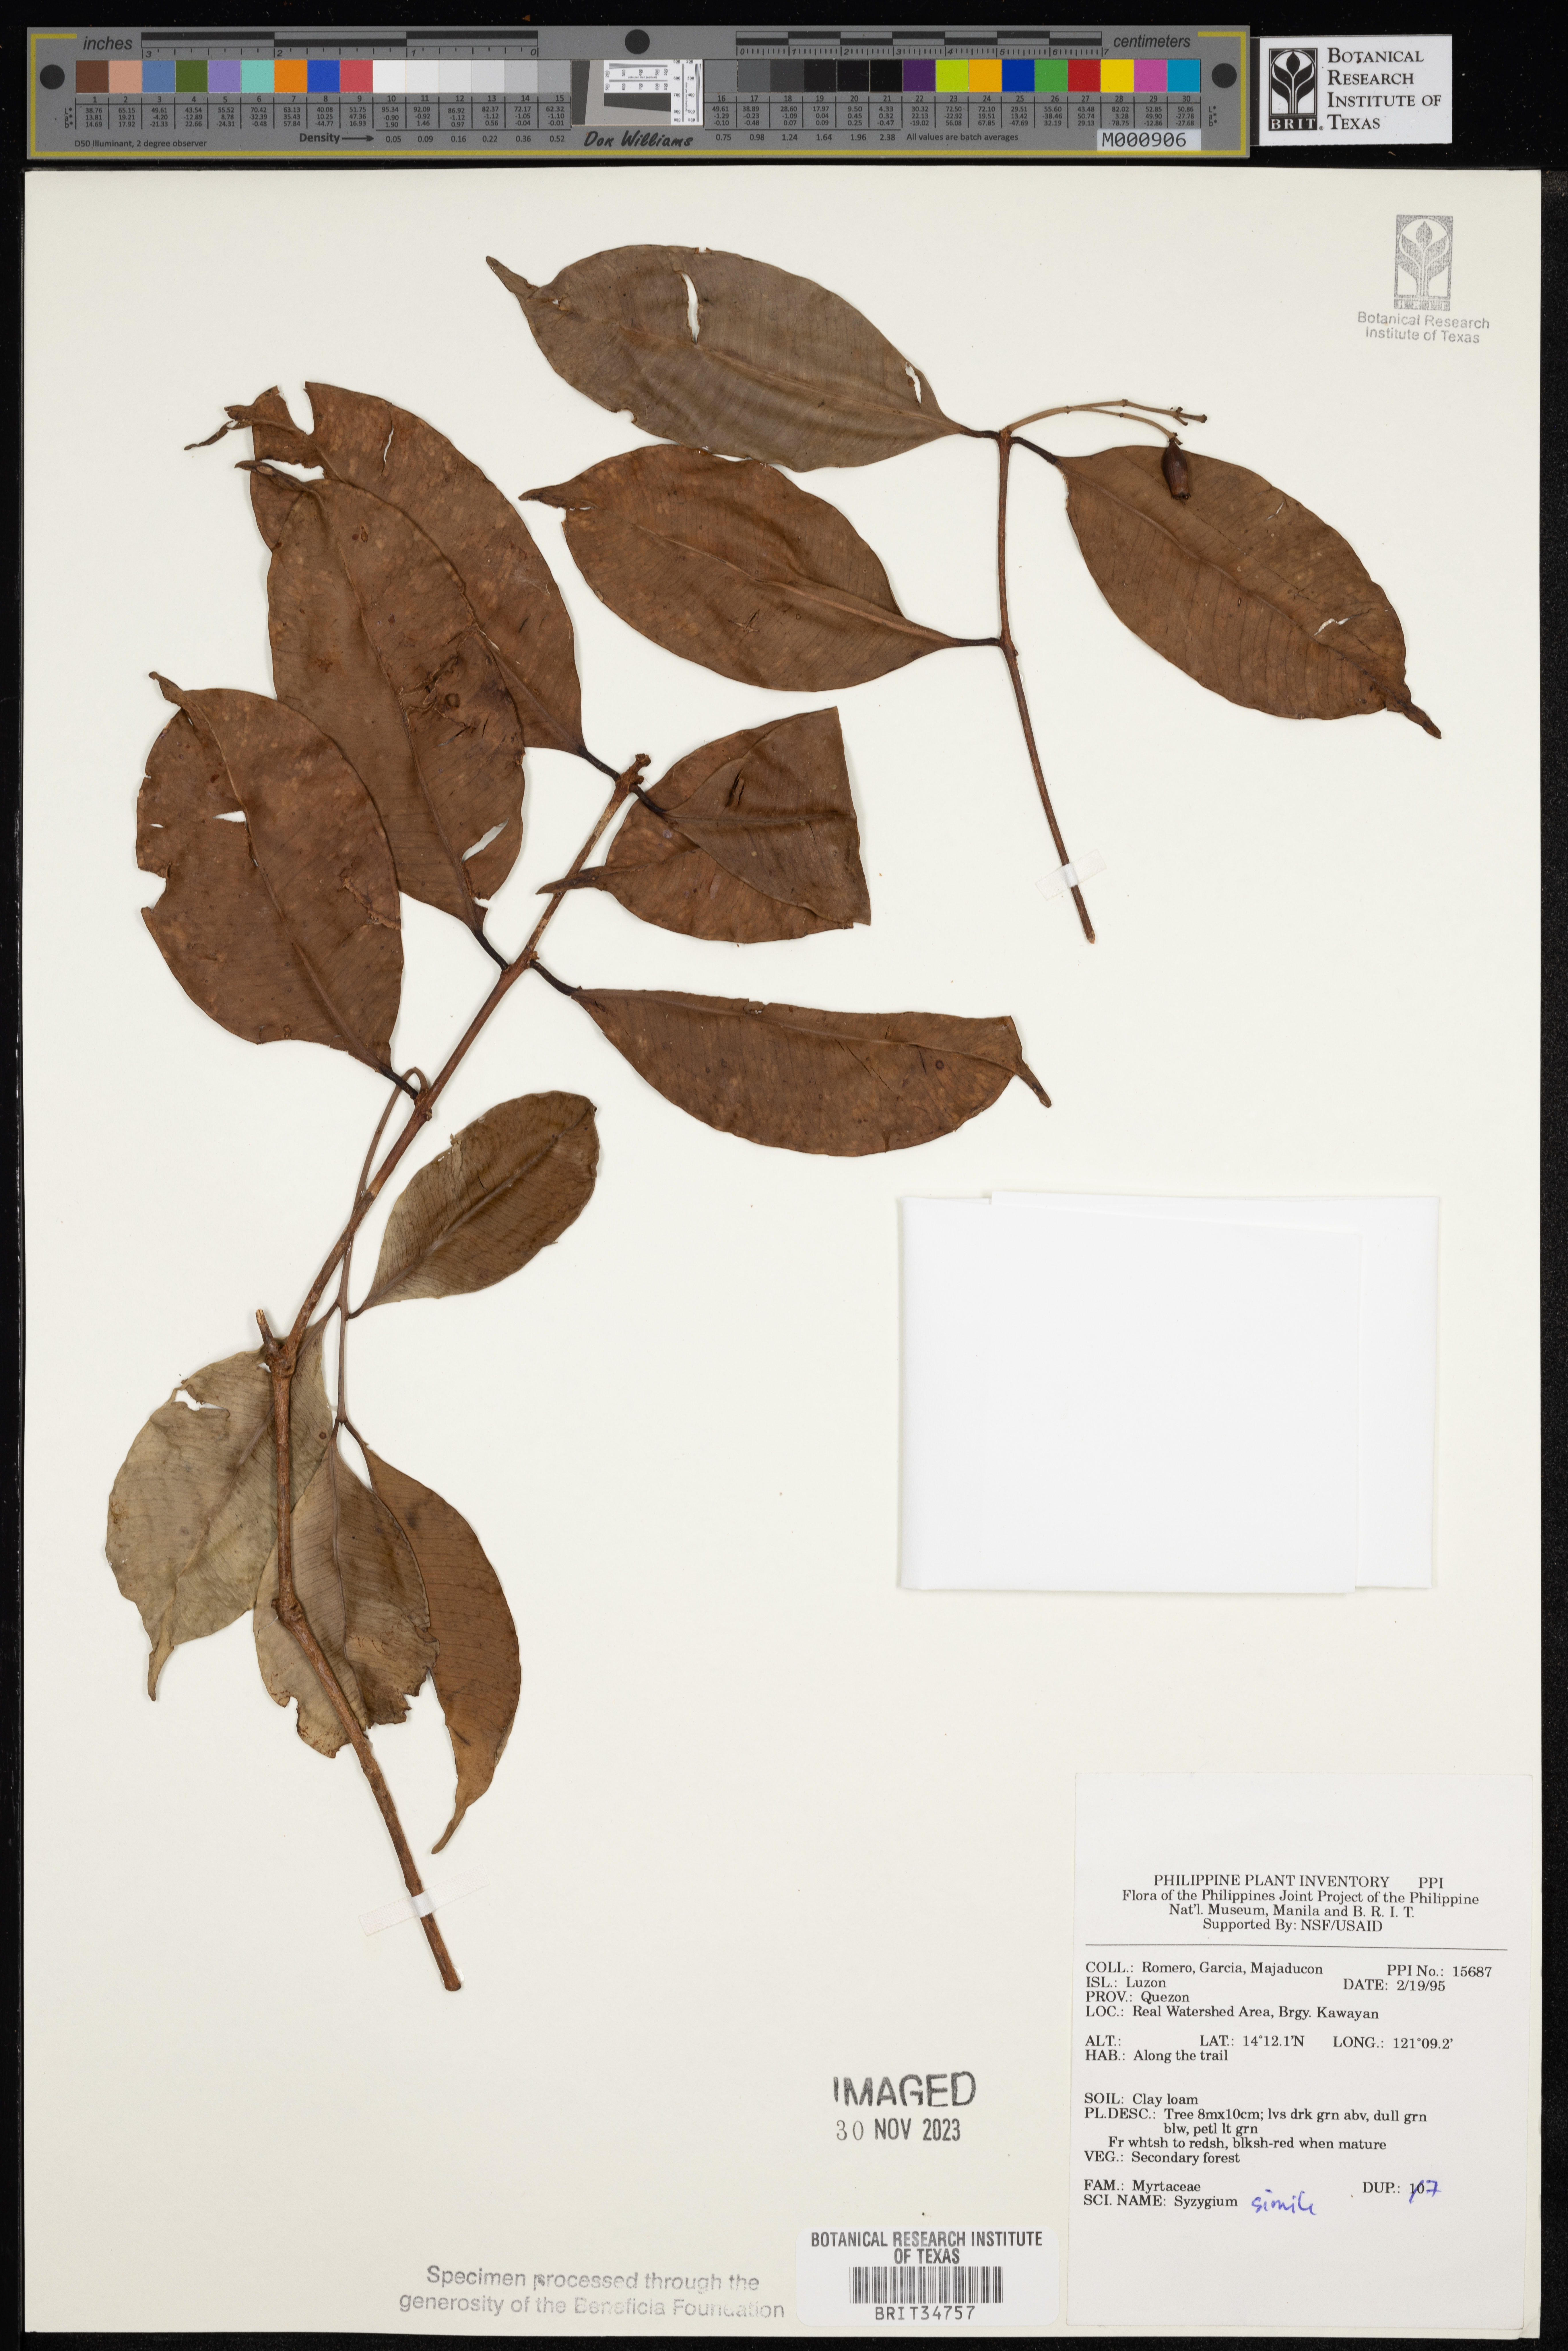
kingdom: Plantae
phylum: Tracheophyta
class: Magnoliopsida
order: Myrtales
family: Myrtaceae
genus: Syzygium
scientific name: Syzygium simile
